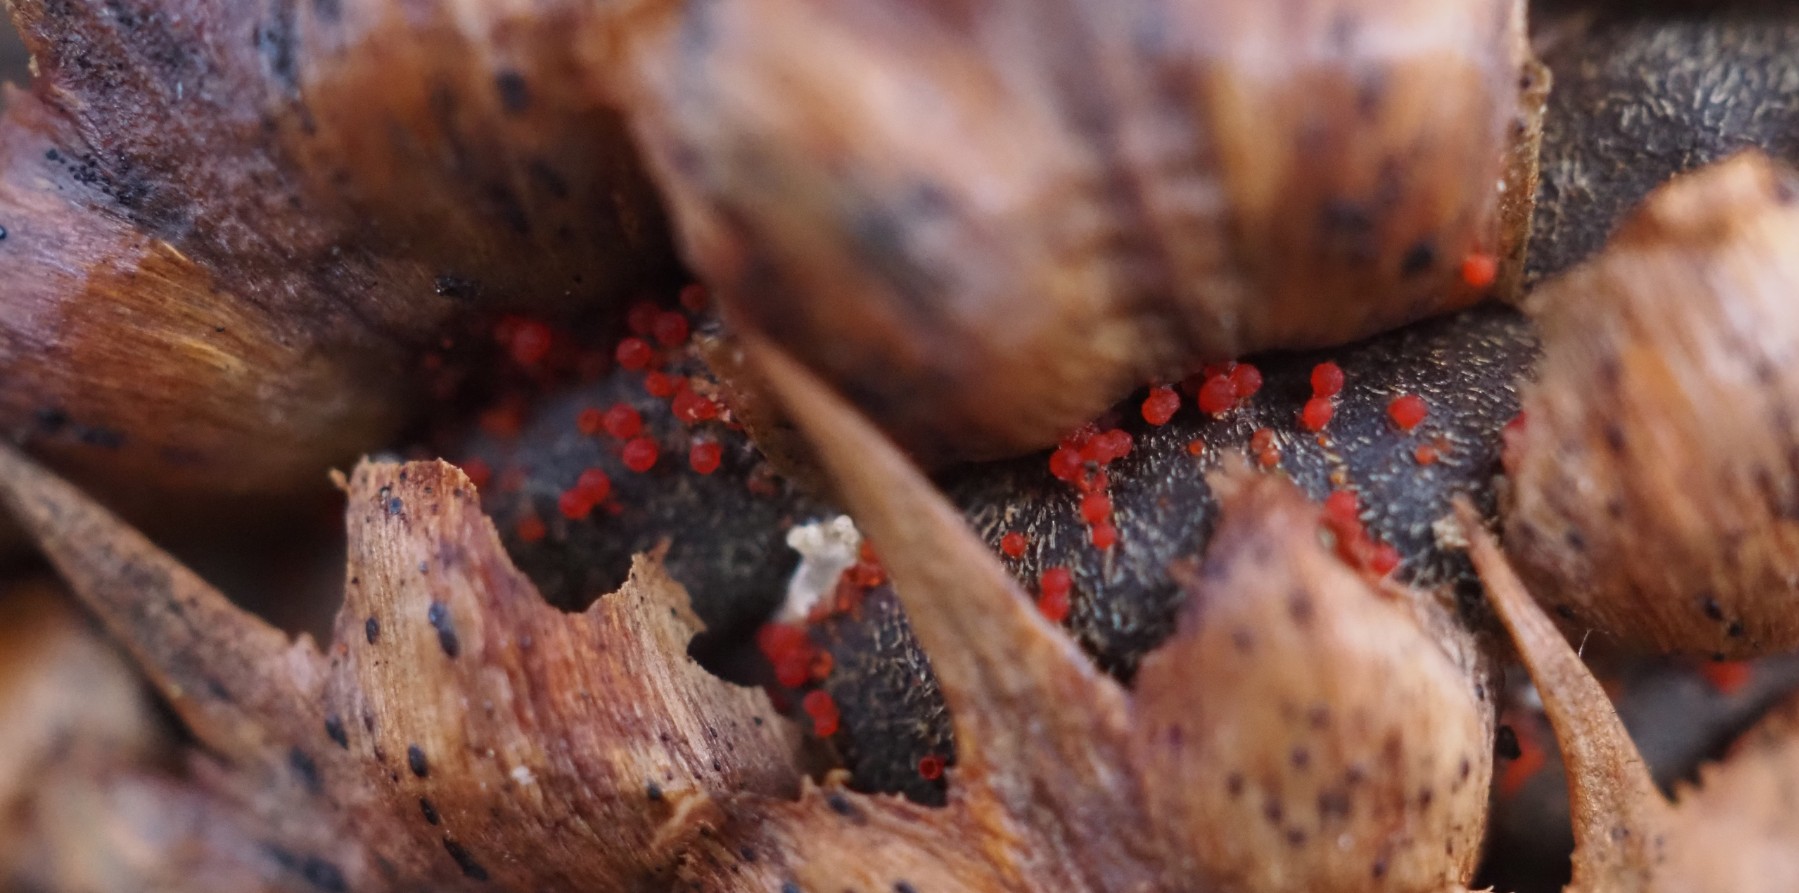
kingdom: Fungi
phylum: Ascomycota
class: Sordariomycetes
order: Hypocreales
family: Nectriaceae
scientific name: Nectriaceae
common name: cinnobersvampfamilien
